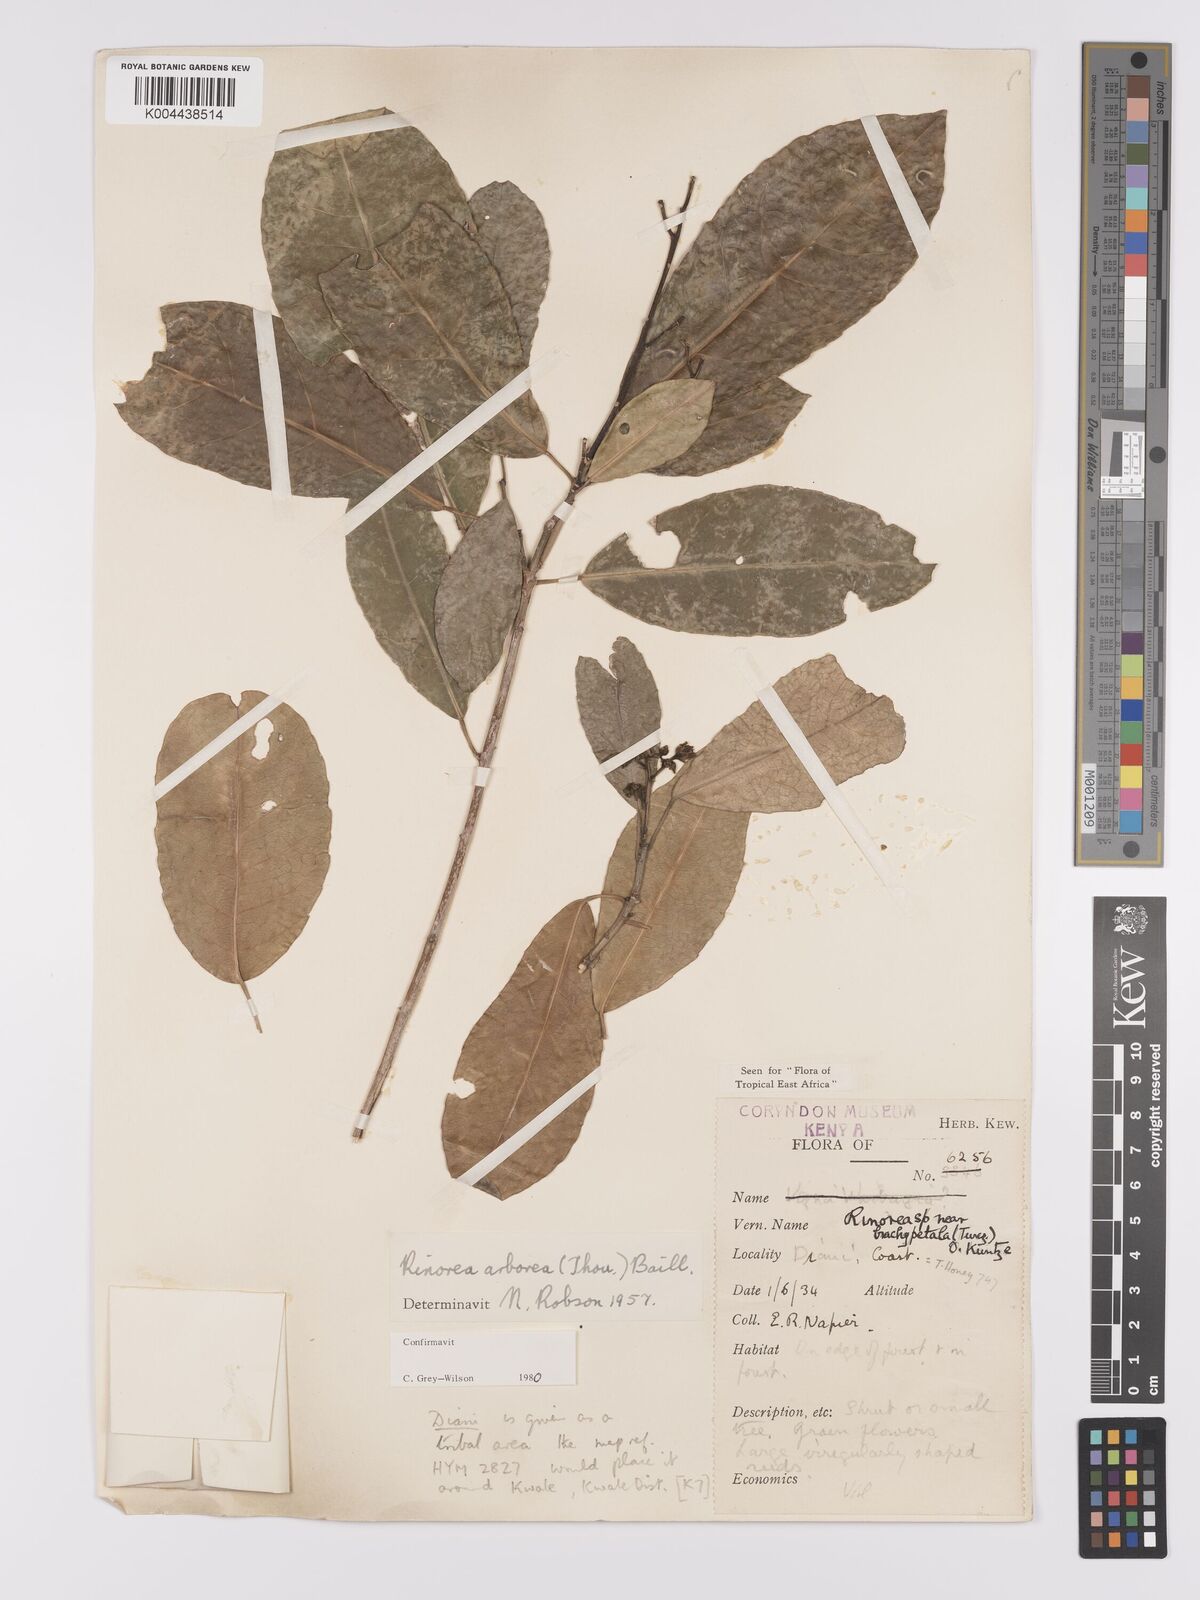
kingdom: Plantae
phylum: Tracheophyta
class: Magnoliopsida
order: Malpighiales
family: Violaceae
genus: Rinorea
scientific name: Rinorea arborea
